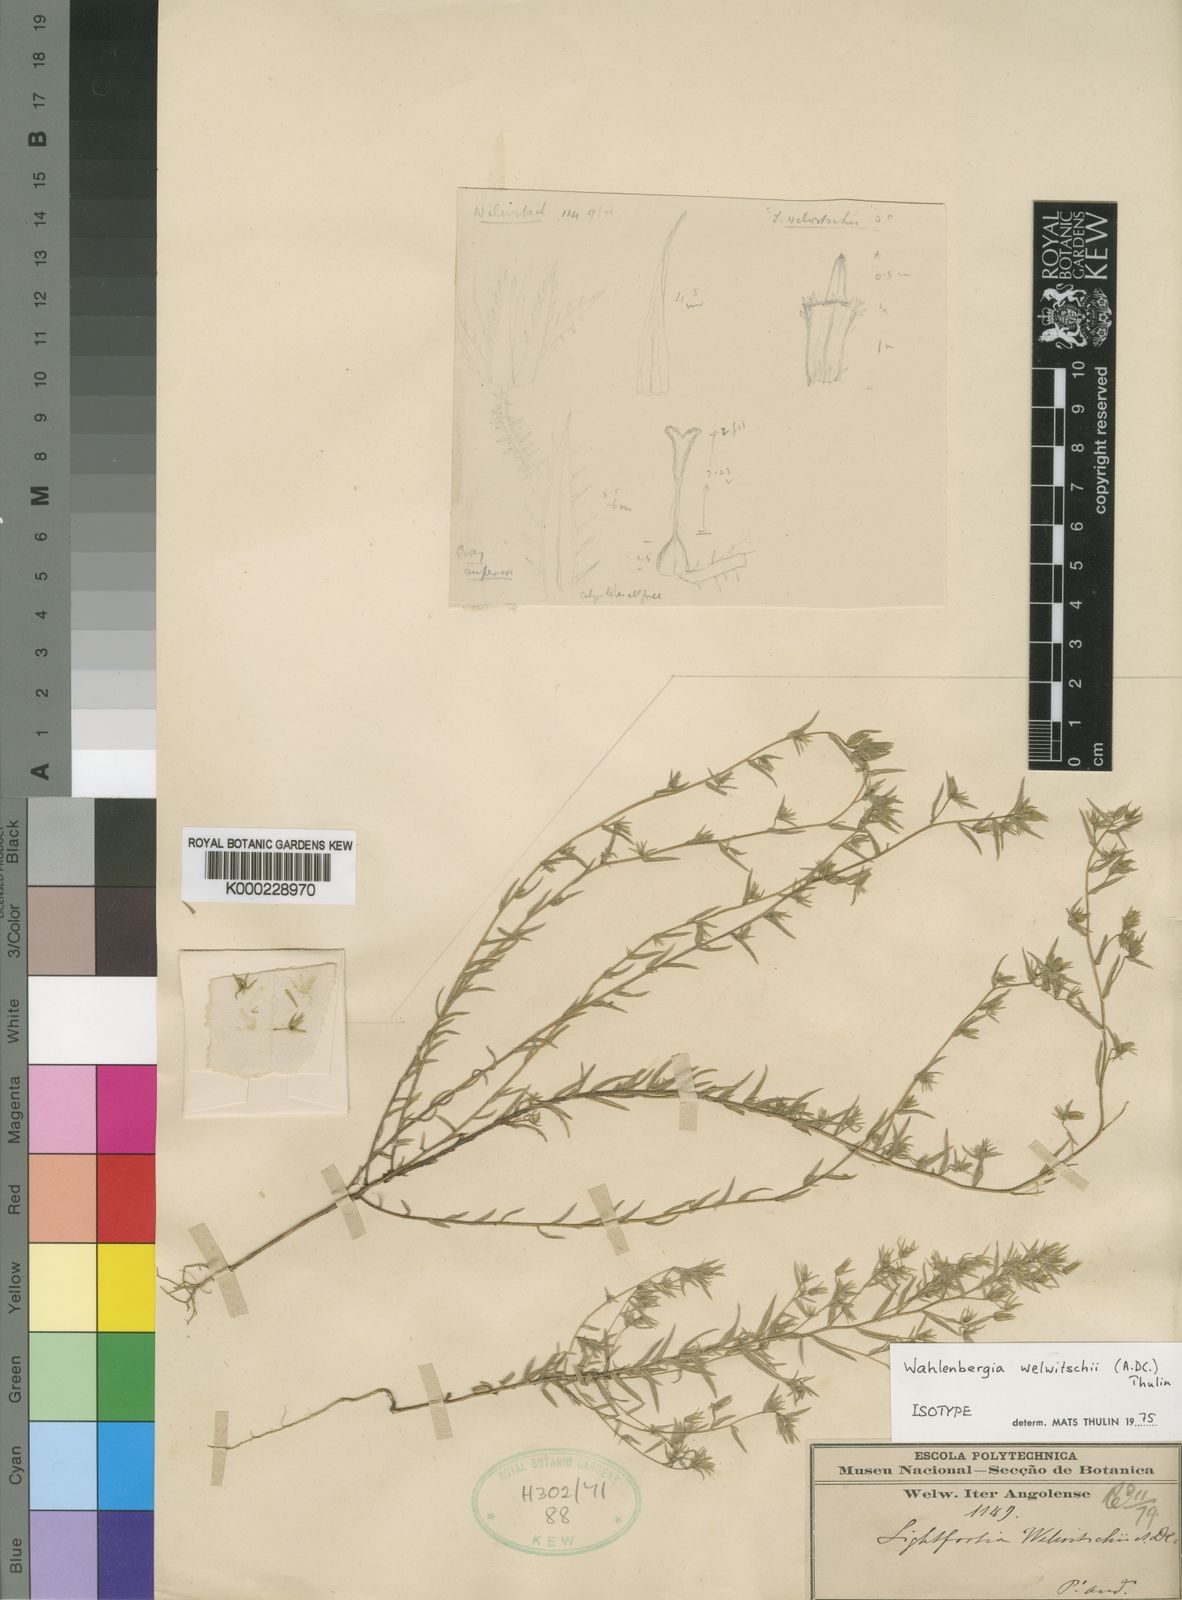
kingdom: Plantae
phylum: Tracheophyta
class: Magnoliopsida
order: Asterales
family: Campanulaceae
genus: Wahlenbergia
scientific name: Wahlenbergia welwitschii
